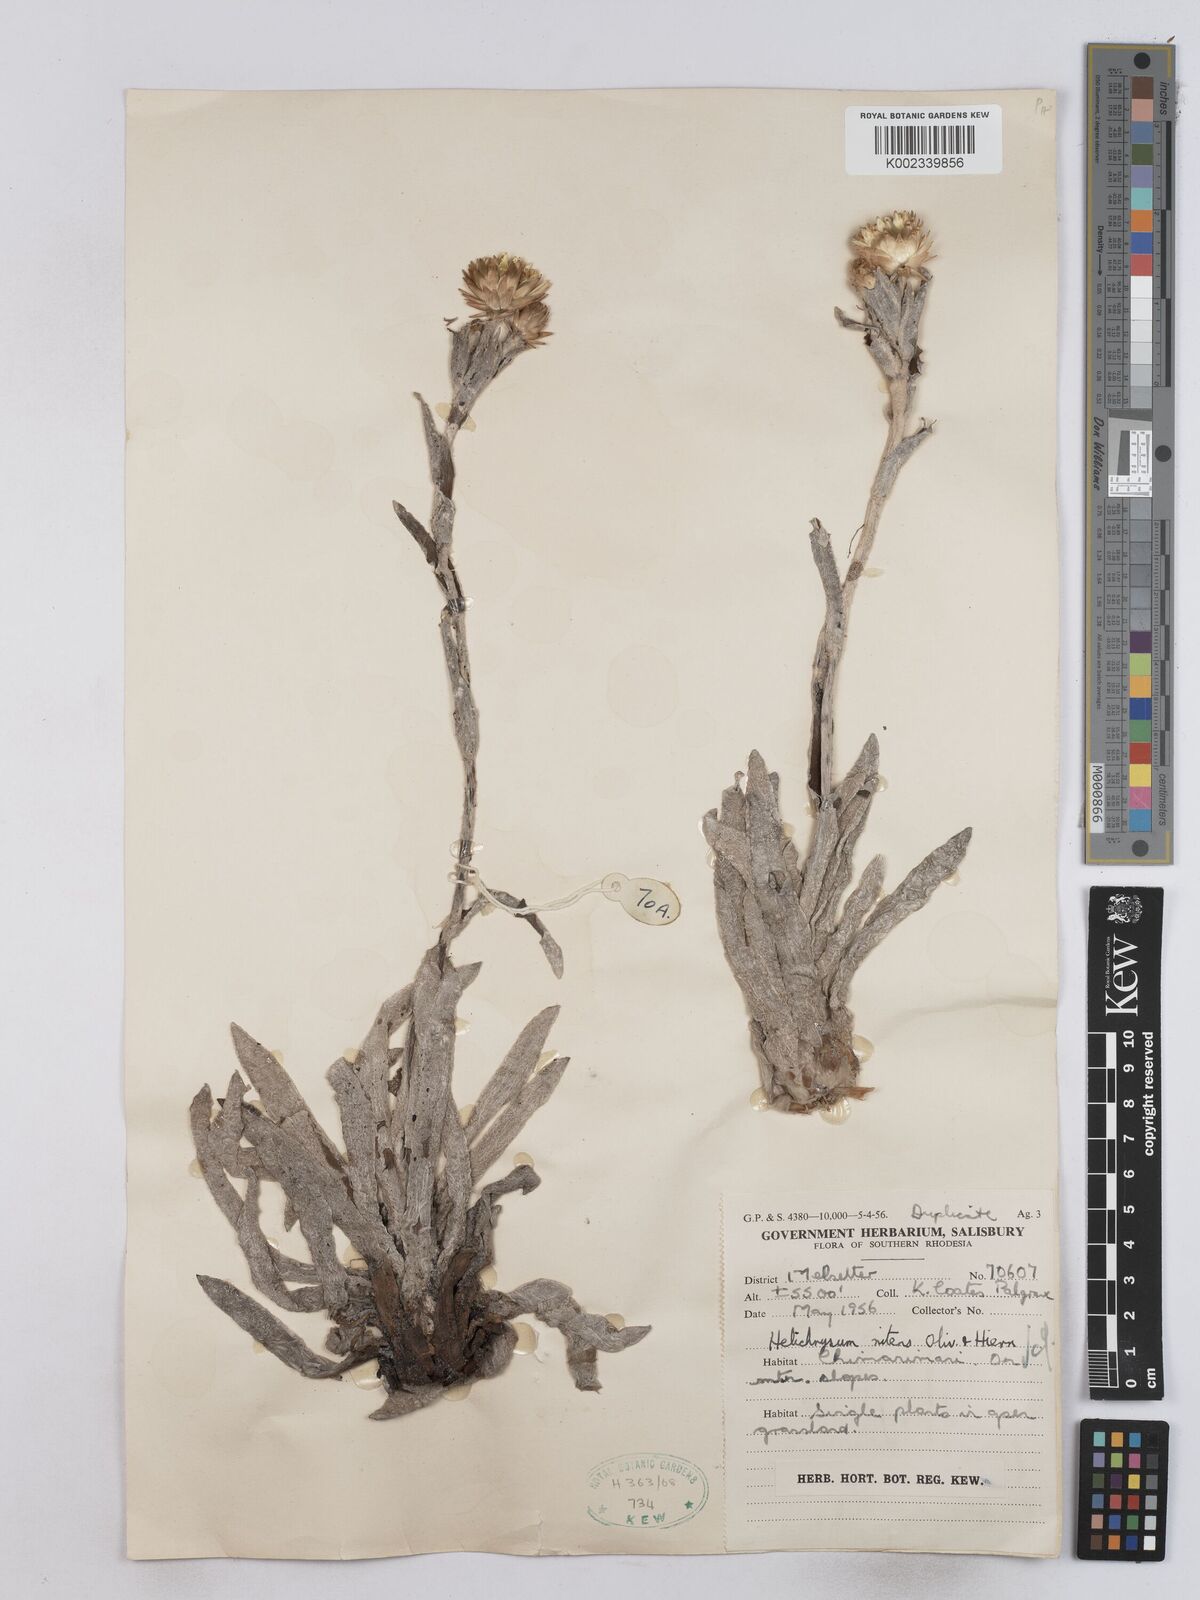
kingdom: Plantae
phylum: Tracheophyta
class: Magnoliopsida
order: Asterales
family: Asteraceae
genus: Helichrysum
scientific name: Helichrysum nitens
